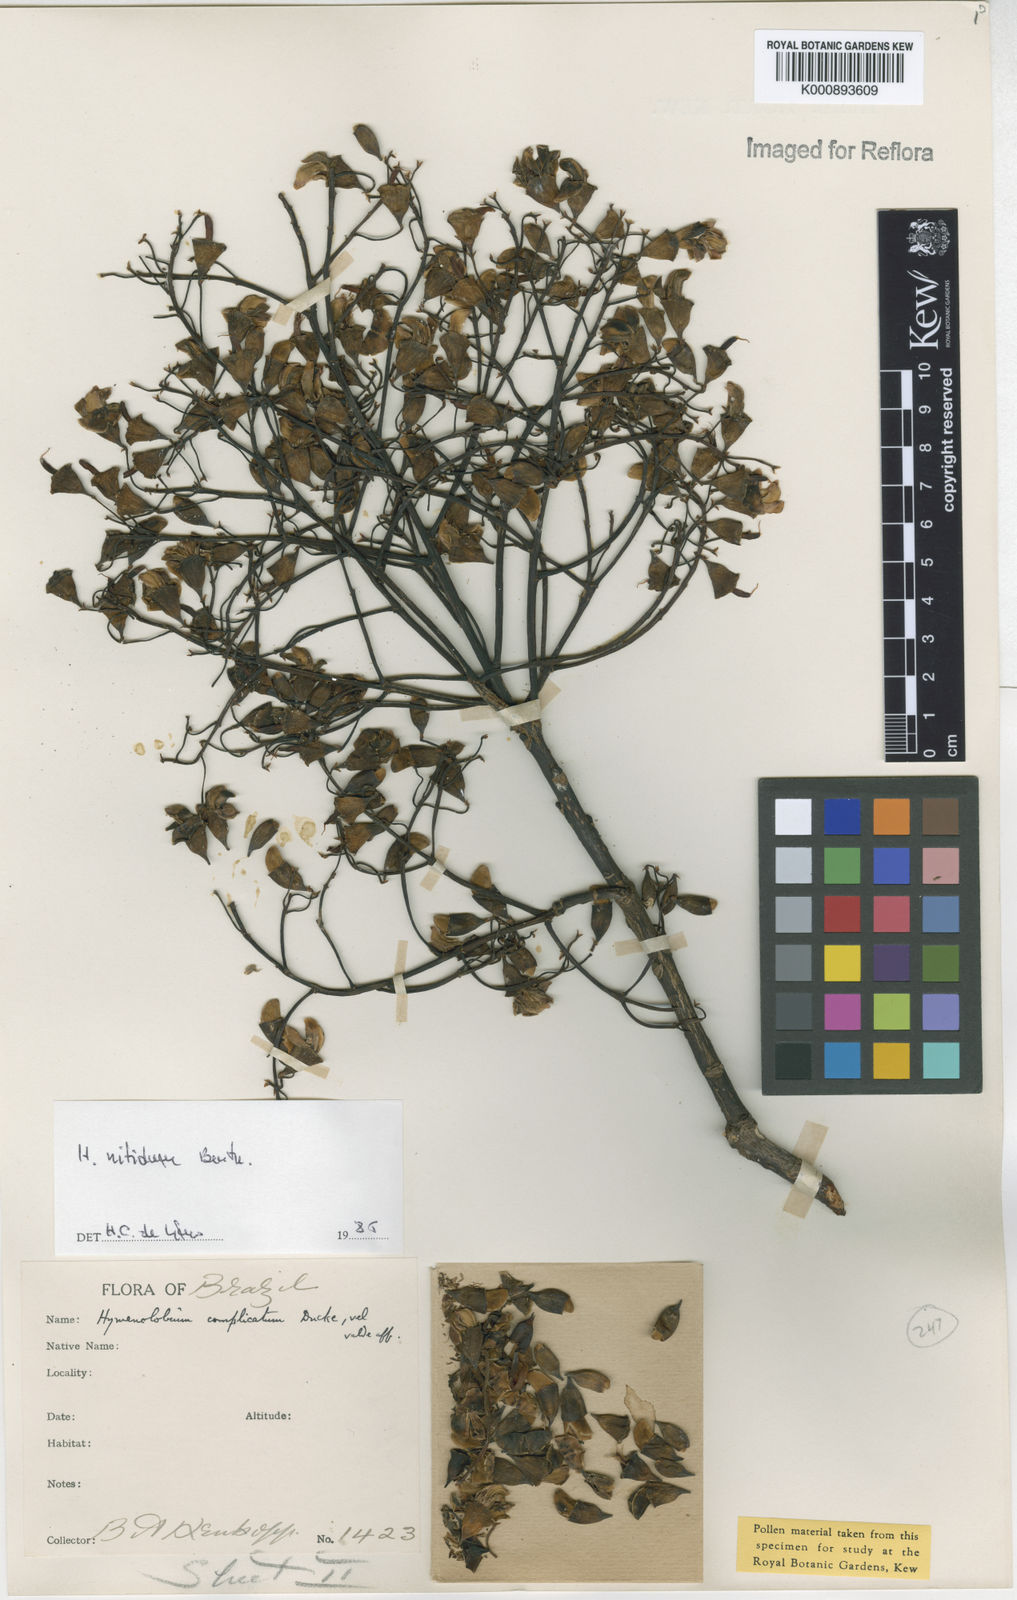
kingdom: Plantae
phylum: Tracheophyta
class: Magnoliopsida
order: Fabales
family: Fabaceae
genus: Hymenolobium
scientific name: Hymenolobium nitidum
